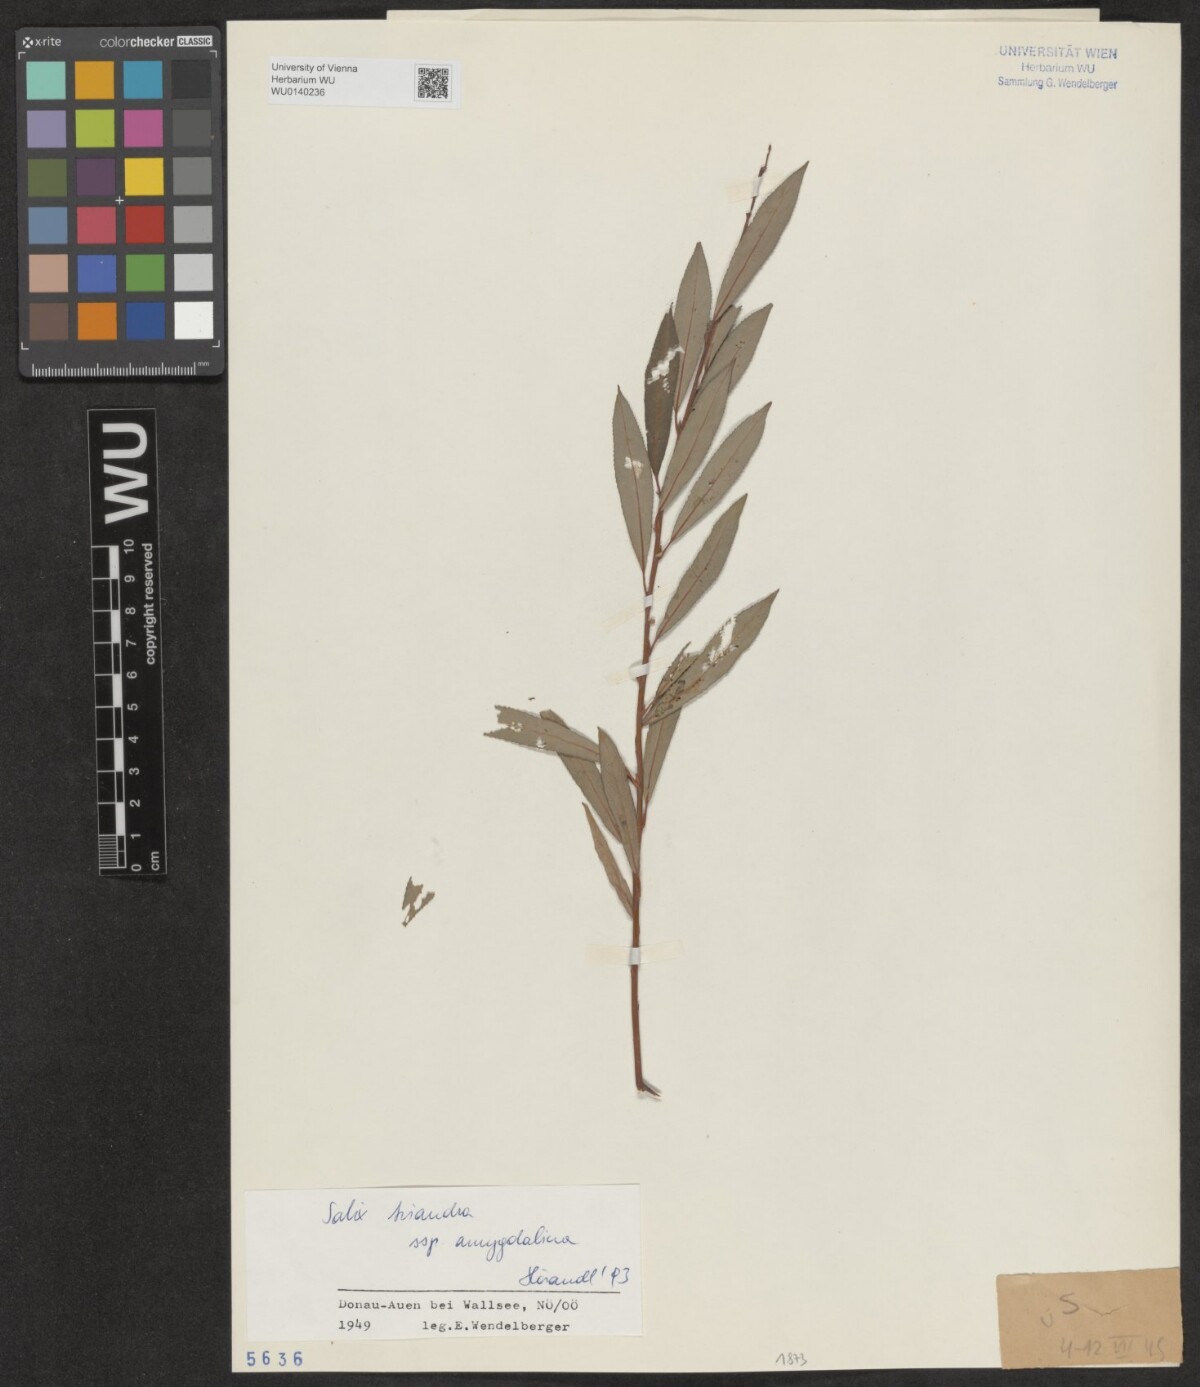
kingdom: Plantae
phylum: Tracheophyta
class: Magnoliopsida
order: Malpighiales
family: Salicaceae
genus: Salix
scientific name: Salix triandra
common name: Almond willow
